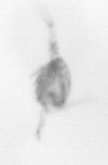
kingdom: Animalia
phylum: Arthropoda
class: Copepoda
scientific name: Copepoda
